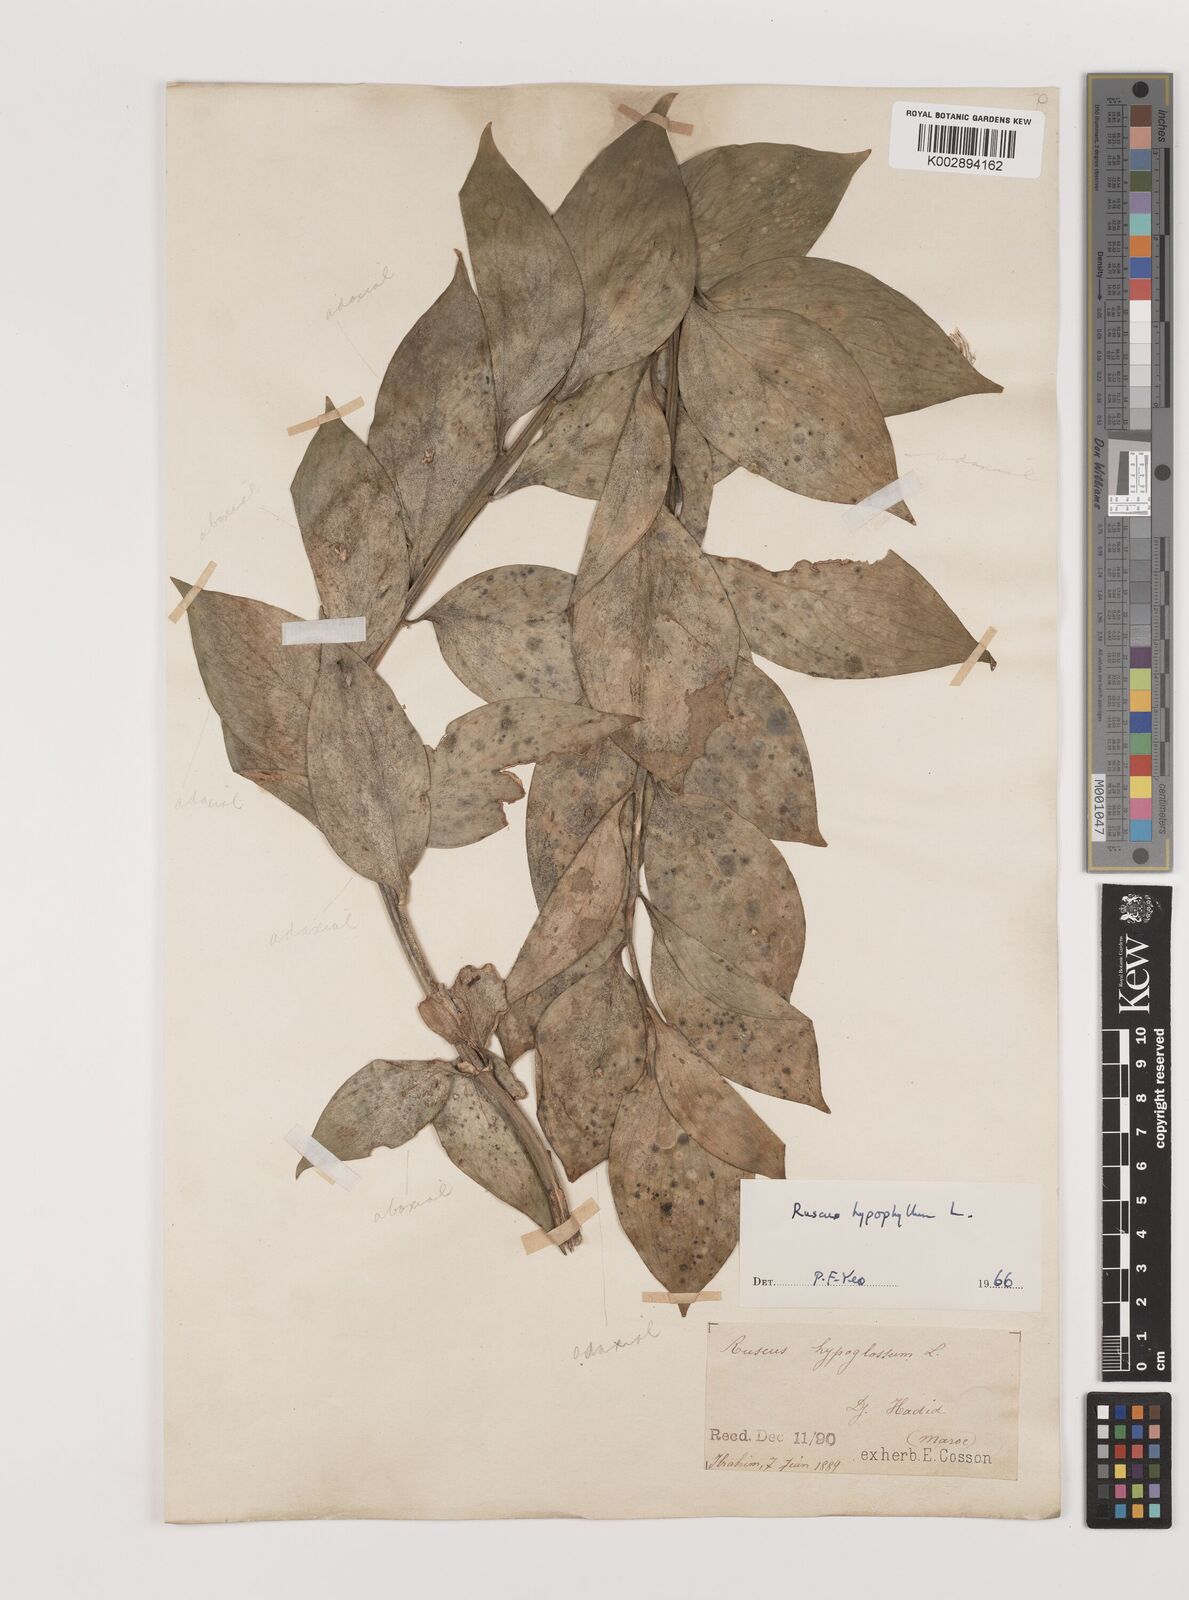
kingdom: Plantae
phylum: Tracheophyta
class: Liliopsida
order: Asparagales
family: Asparagaceae
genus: Ruscus
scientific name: Ruscus hypophyllum
